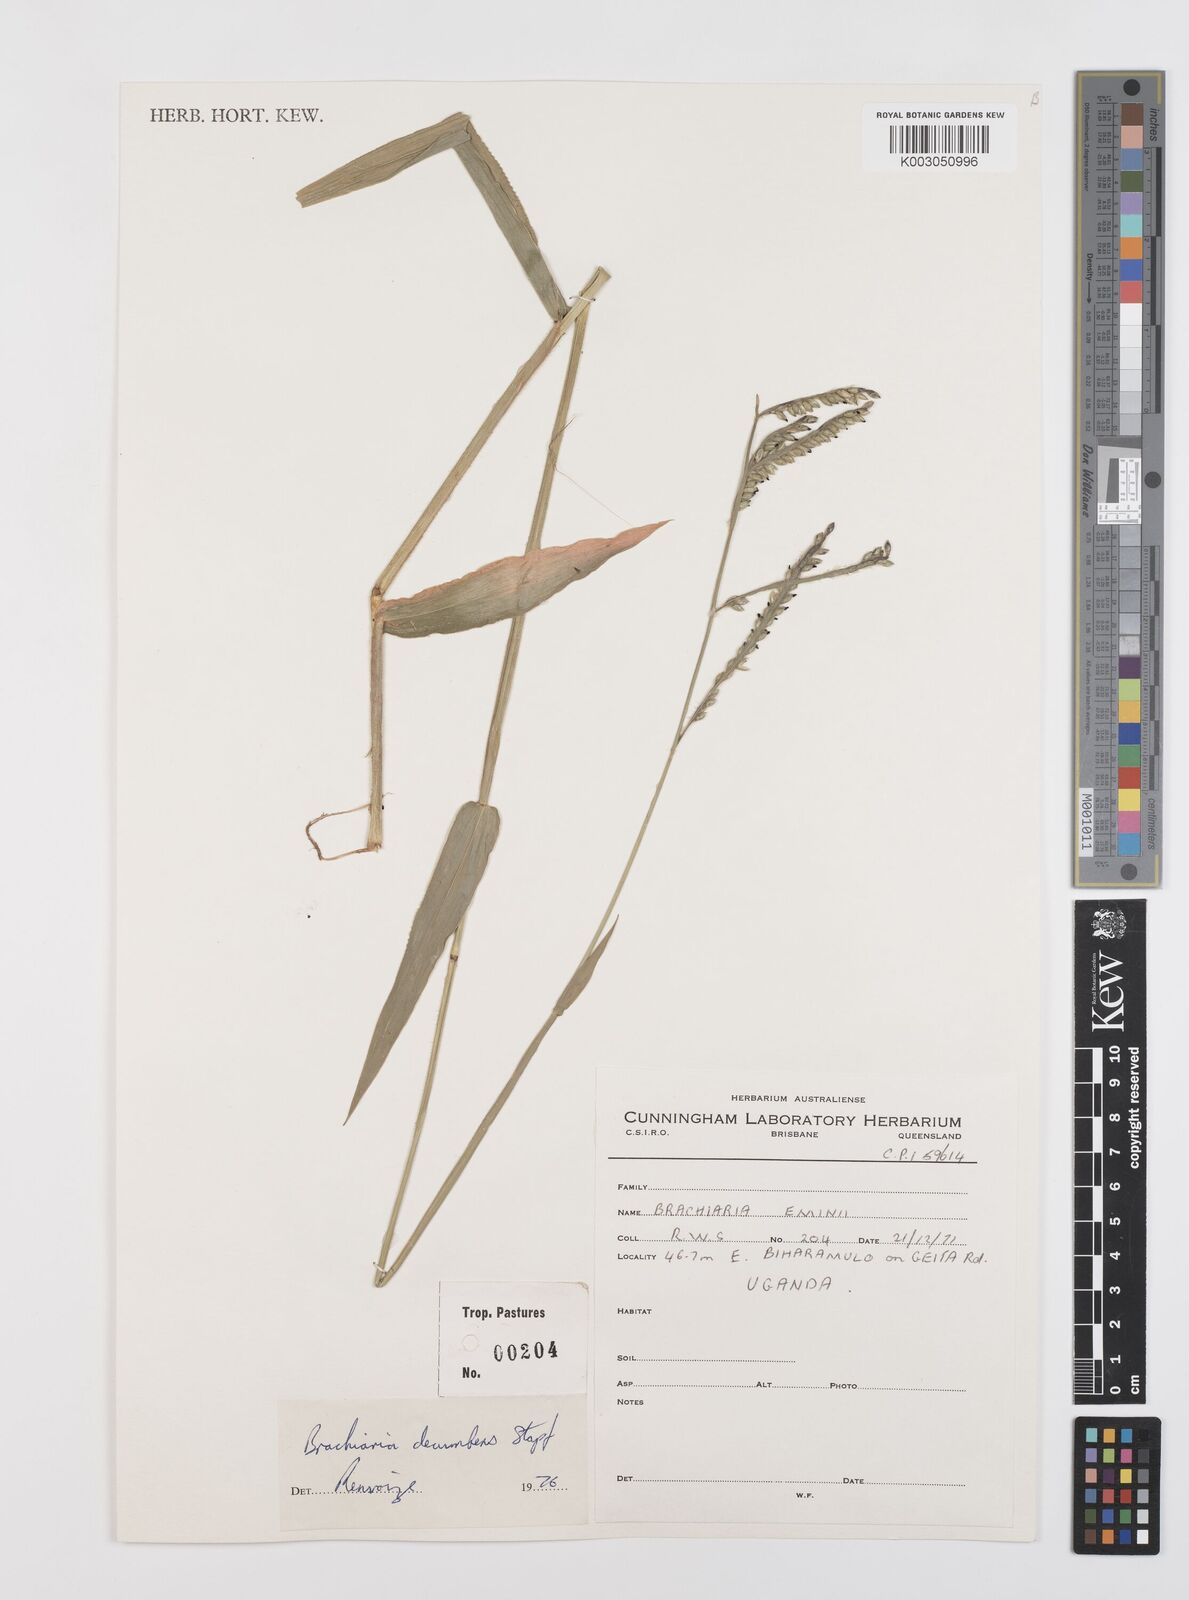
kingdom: Plantae
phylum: Tracheophyta
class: Liliopsida
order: Poales
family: Poaceae
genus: Urochloa
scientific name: Urochloa brizantha
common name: Palisade signalgrass
